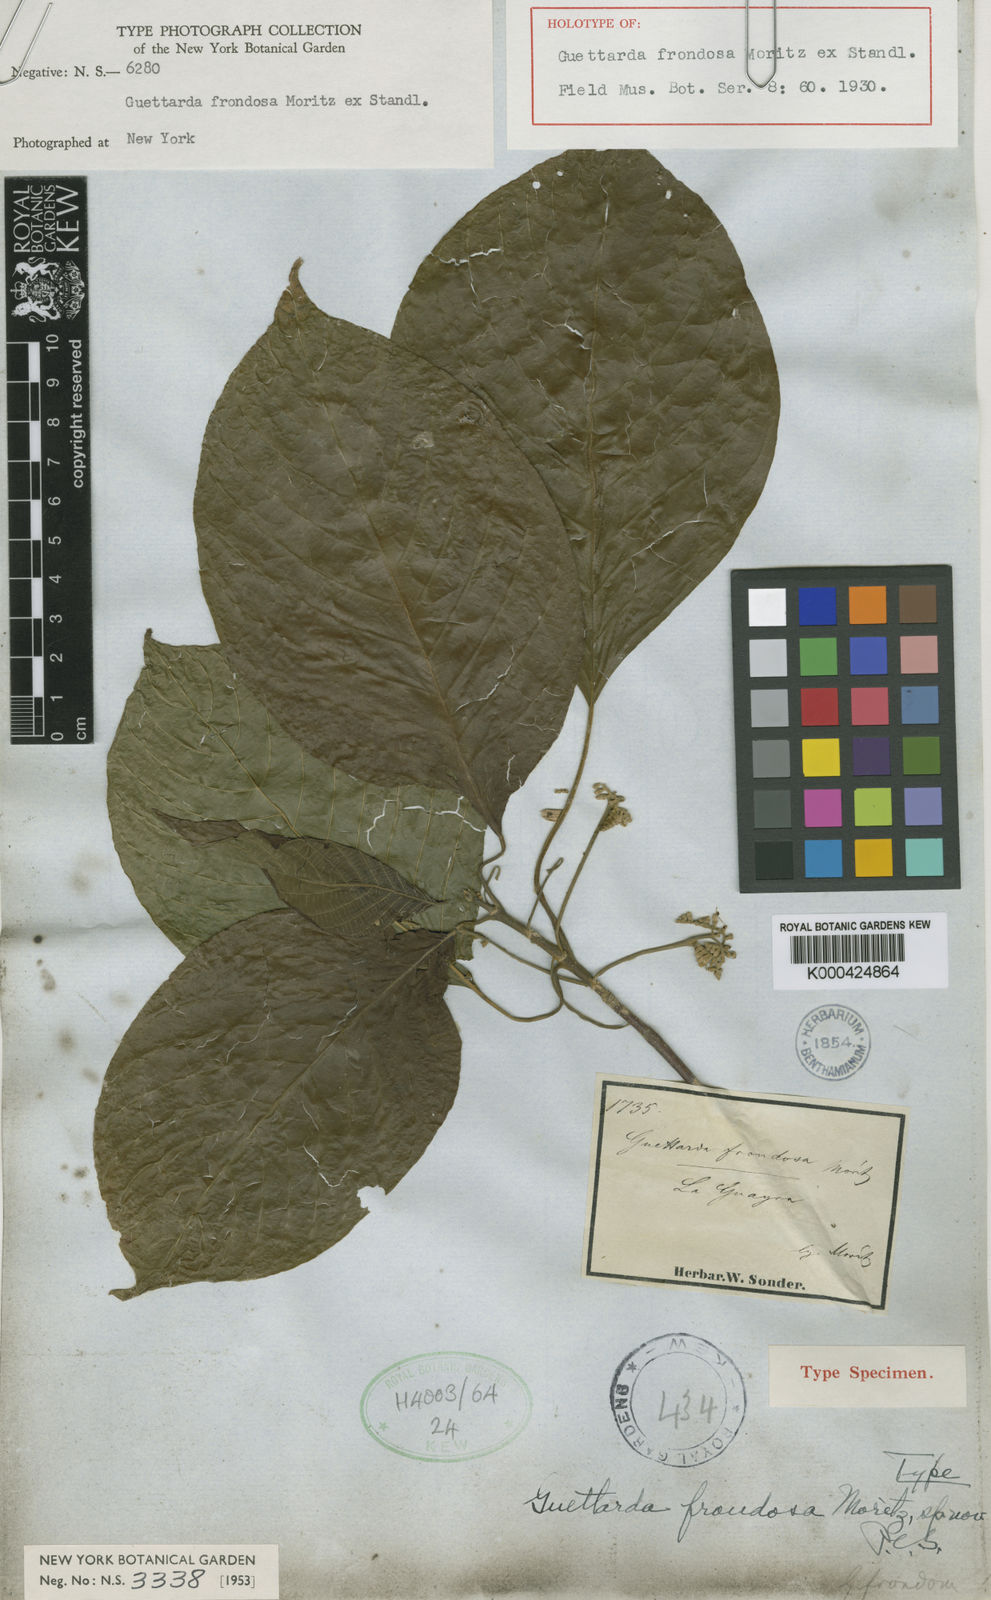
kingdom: Plantae
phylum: Tracheophyta
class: Magnoliopsida
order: Gentianales
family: Rubiaceae
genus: Guettarda
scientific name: Guettarda frondosa
